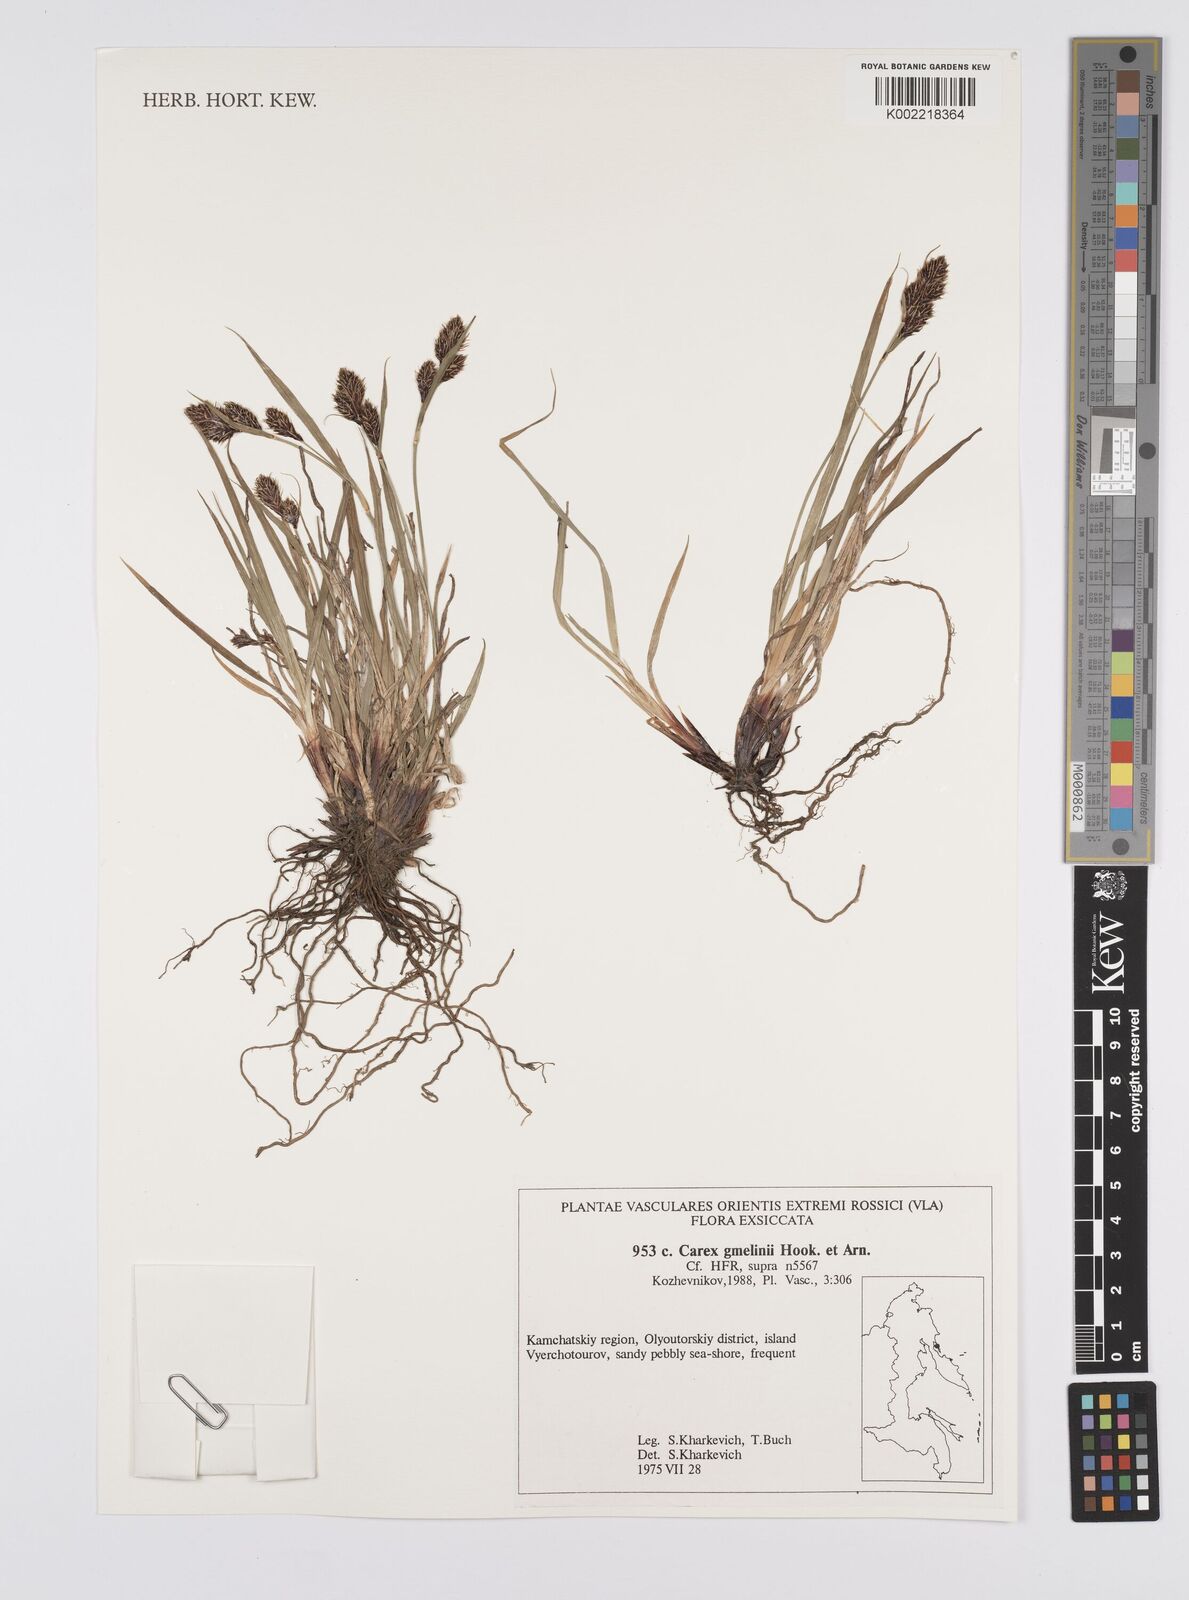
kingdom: Plantae
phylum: Tracheophyta
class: Liliopsida
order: Poales
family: Cyperaceae
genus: Carex
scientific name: Carex gmelinii
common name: Gmelin's sedge
